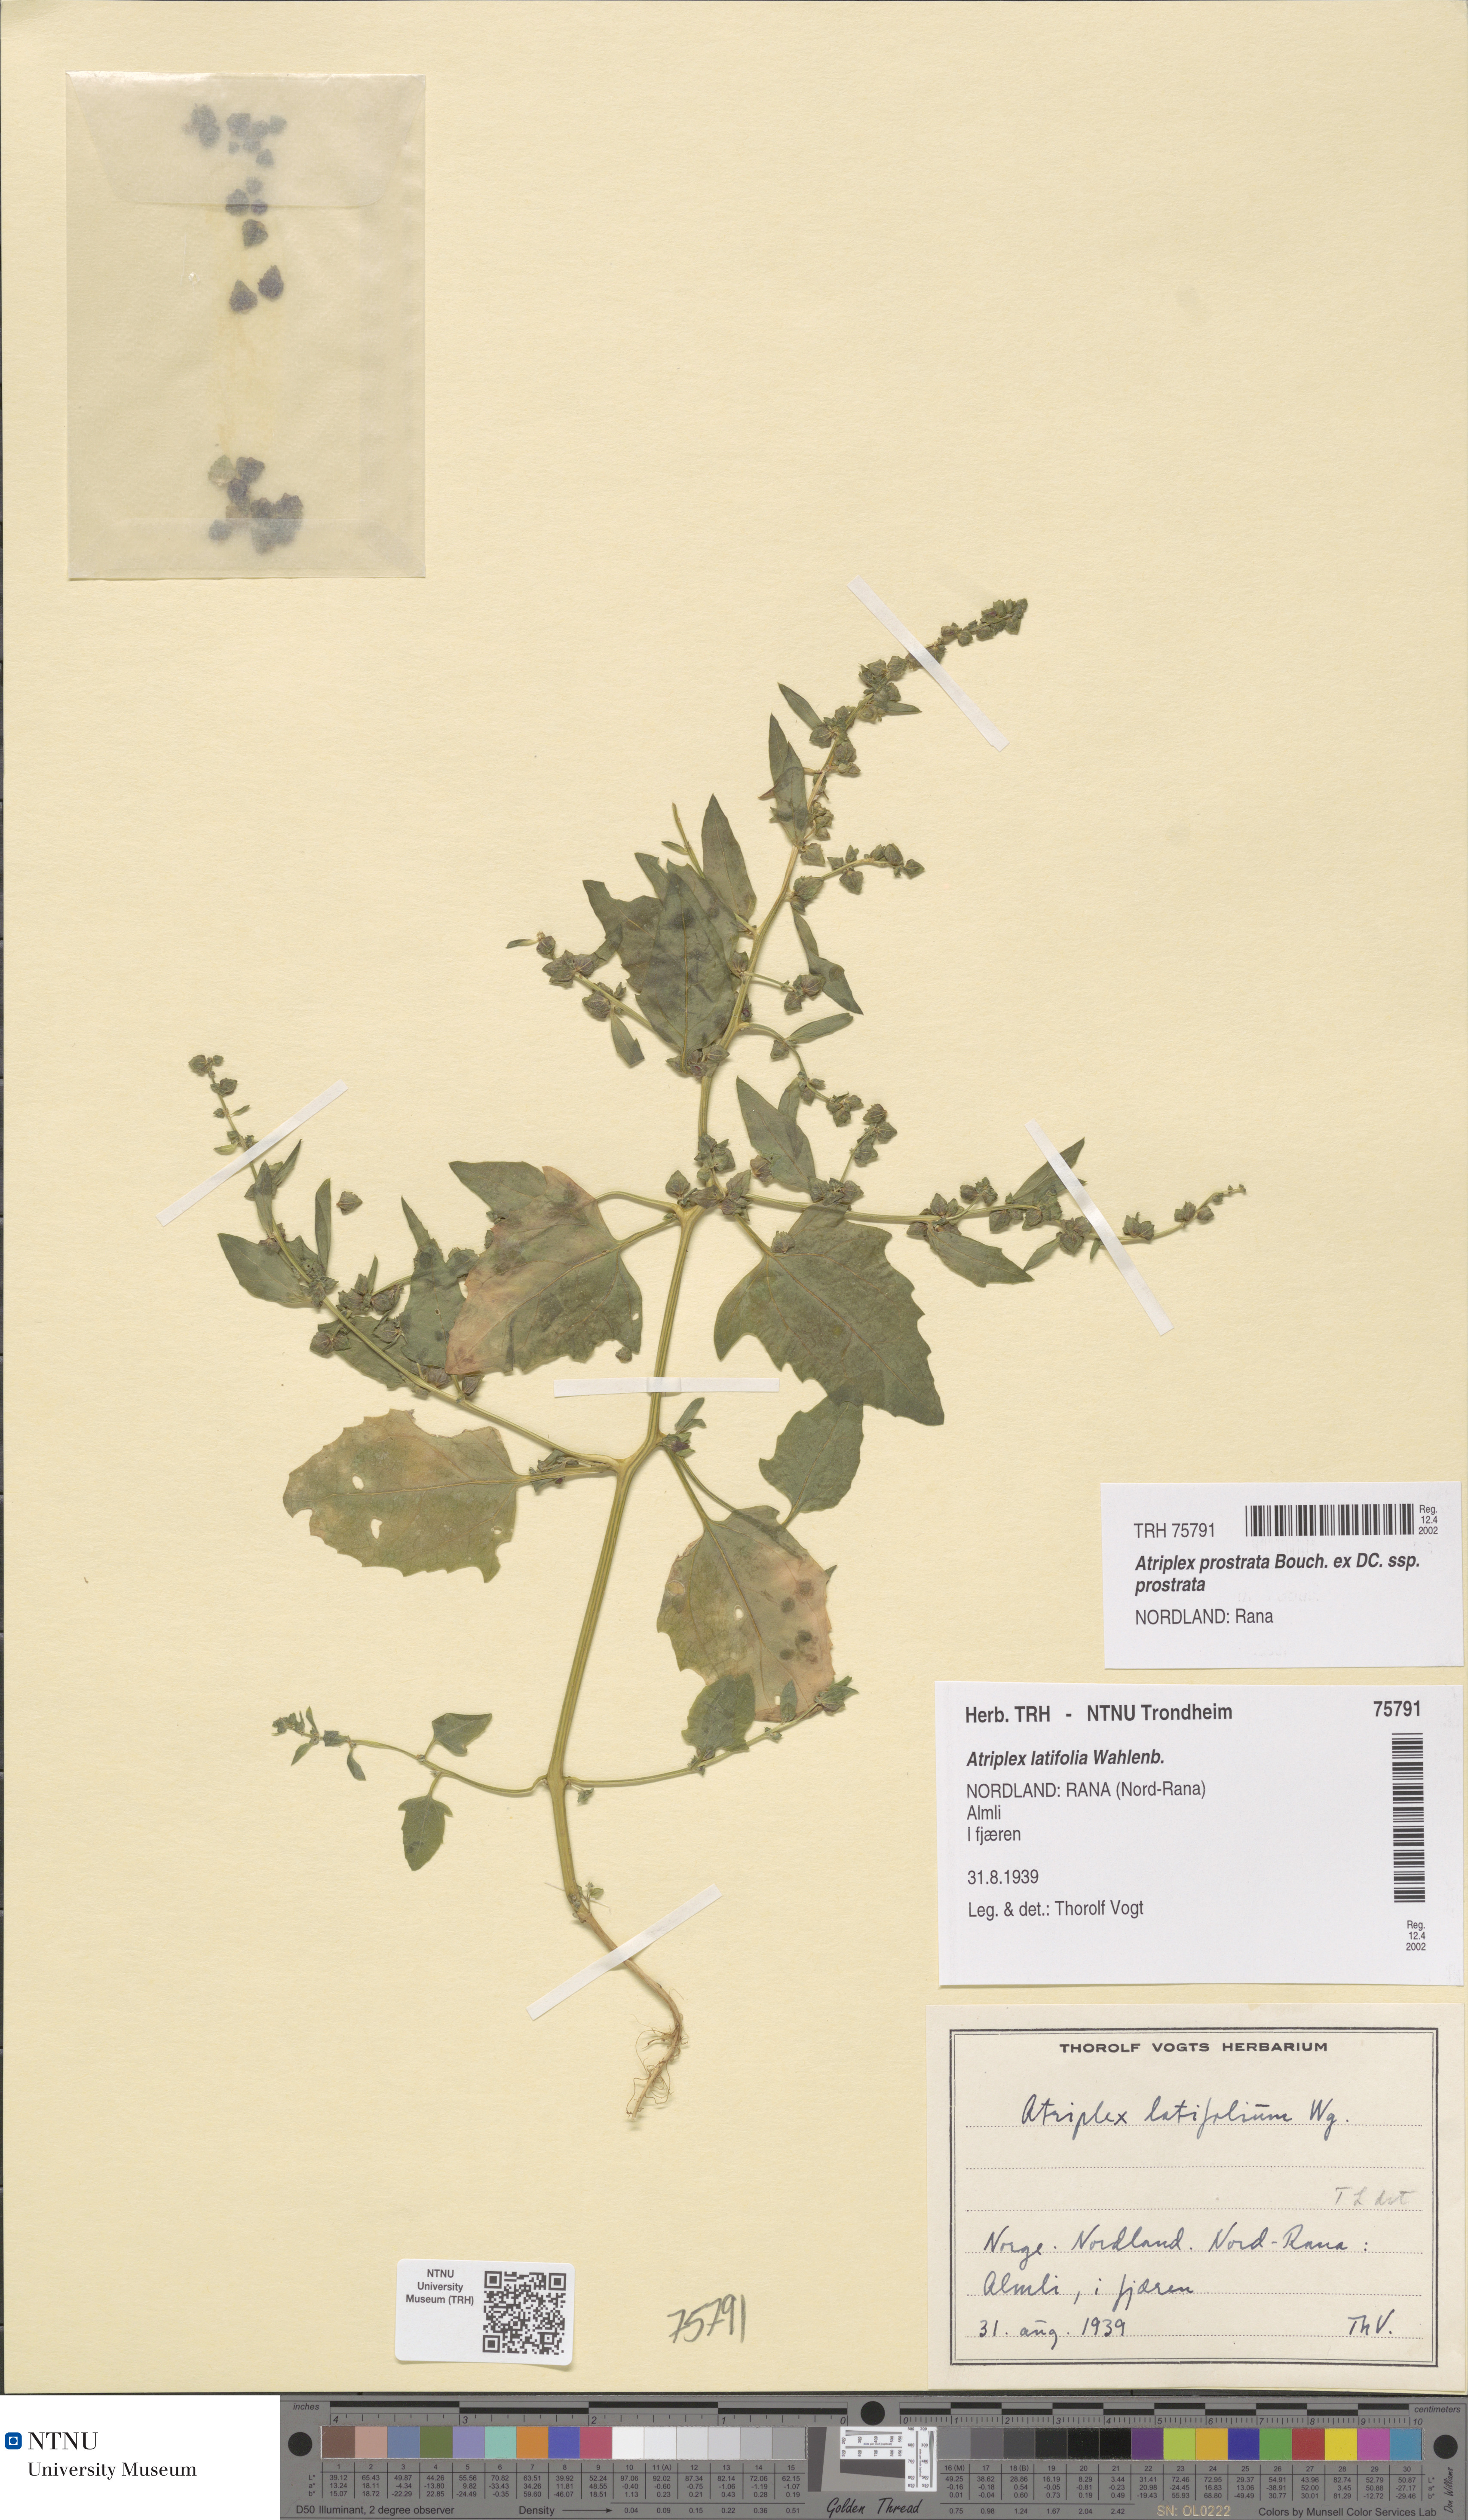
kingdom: Plantae
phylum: Tracheophyta
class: Magnoliopsida
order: Caryophyllales
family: Amaranthaceae
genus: Atriplex
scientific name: Atriplex prostrata
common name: Spear-leaved orache
